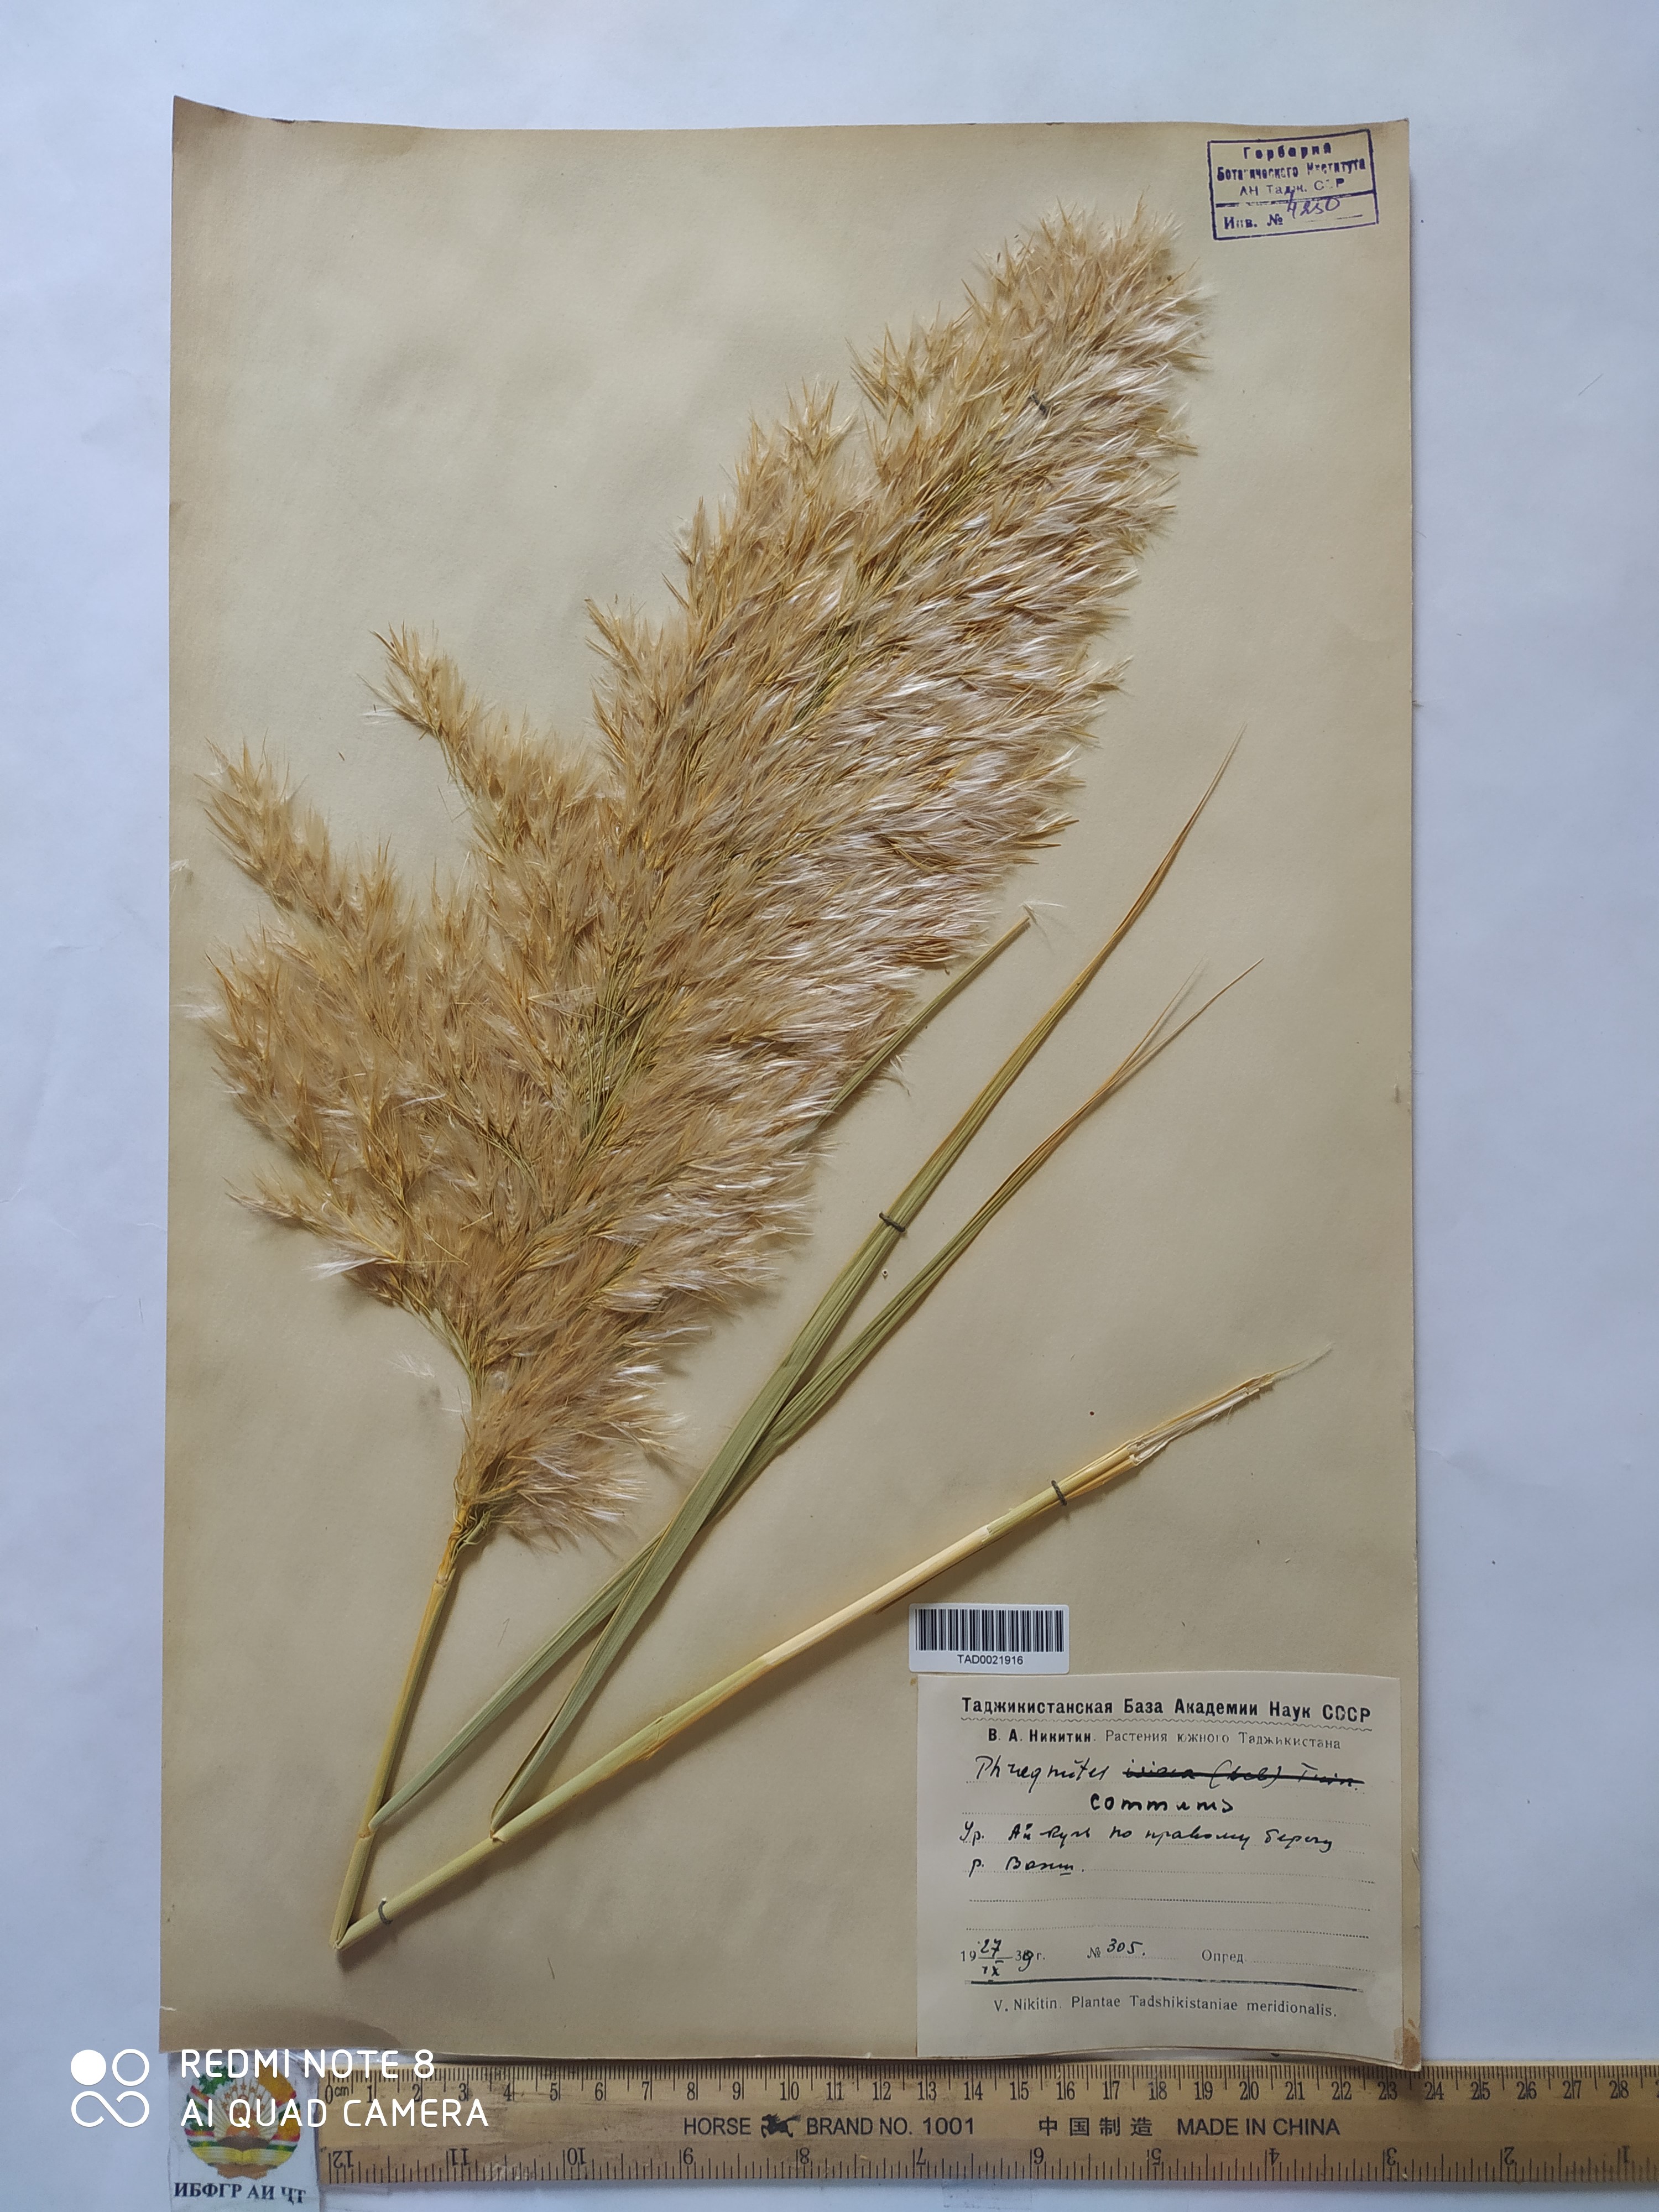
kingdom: Plantae
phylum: Tracheophyta
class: Liliopsida
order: Poales
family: Poaceae
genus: Phragmites
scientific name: Phragmites australis
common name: Common reed
